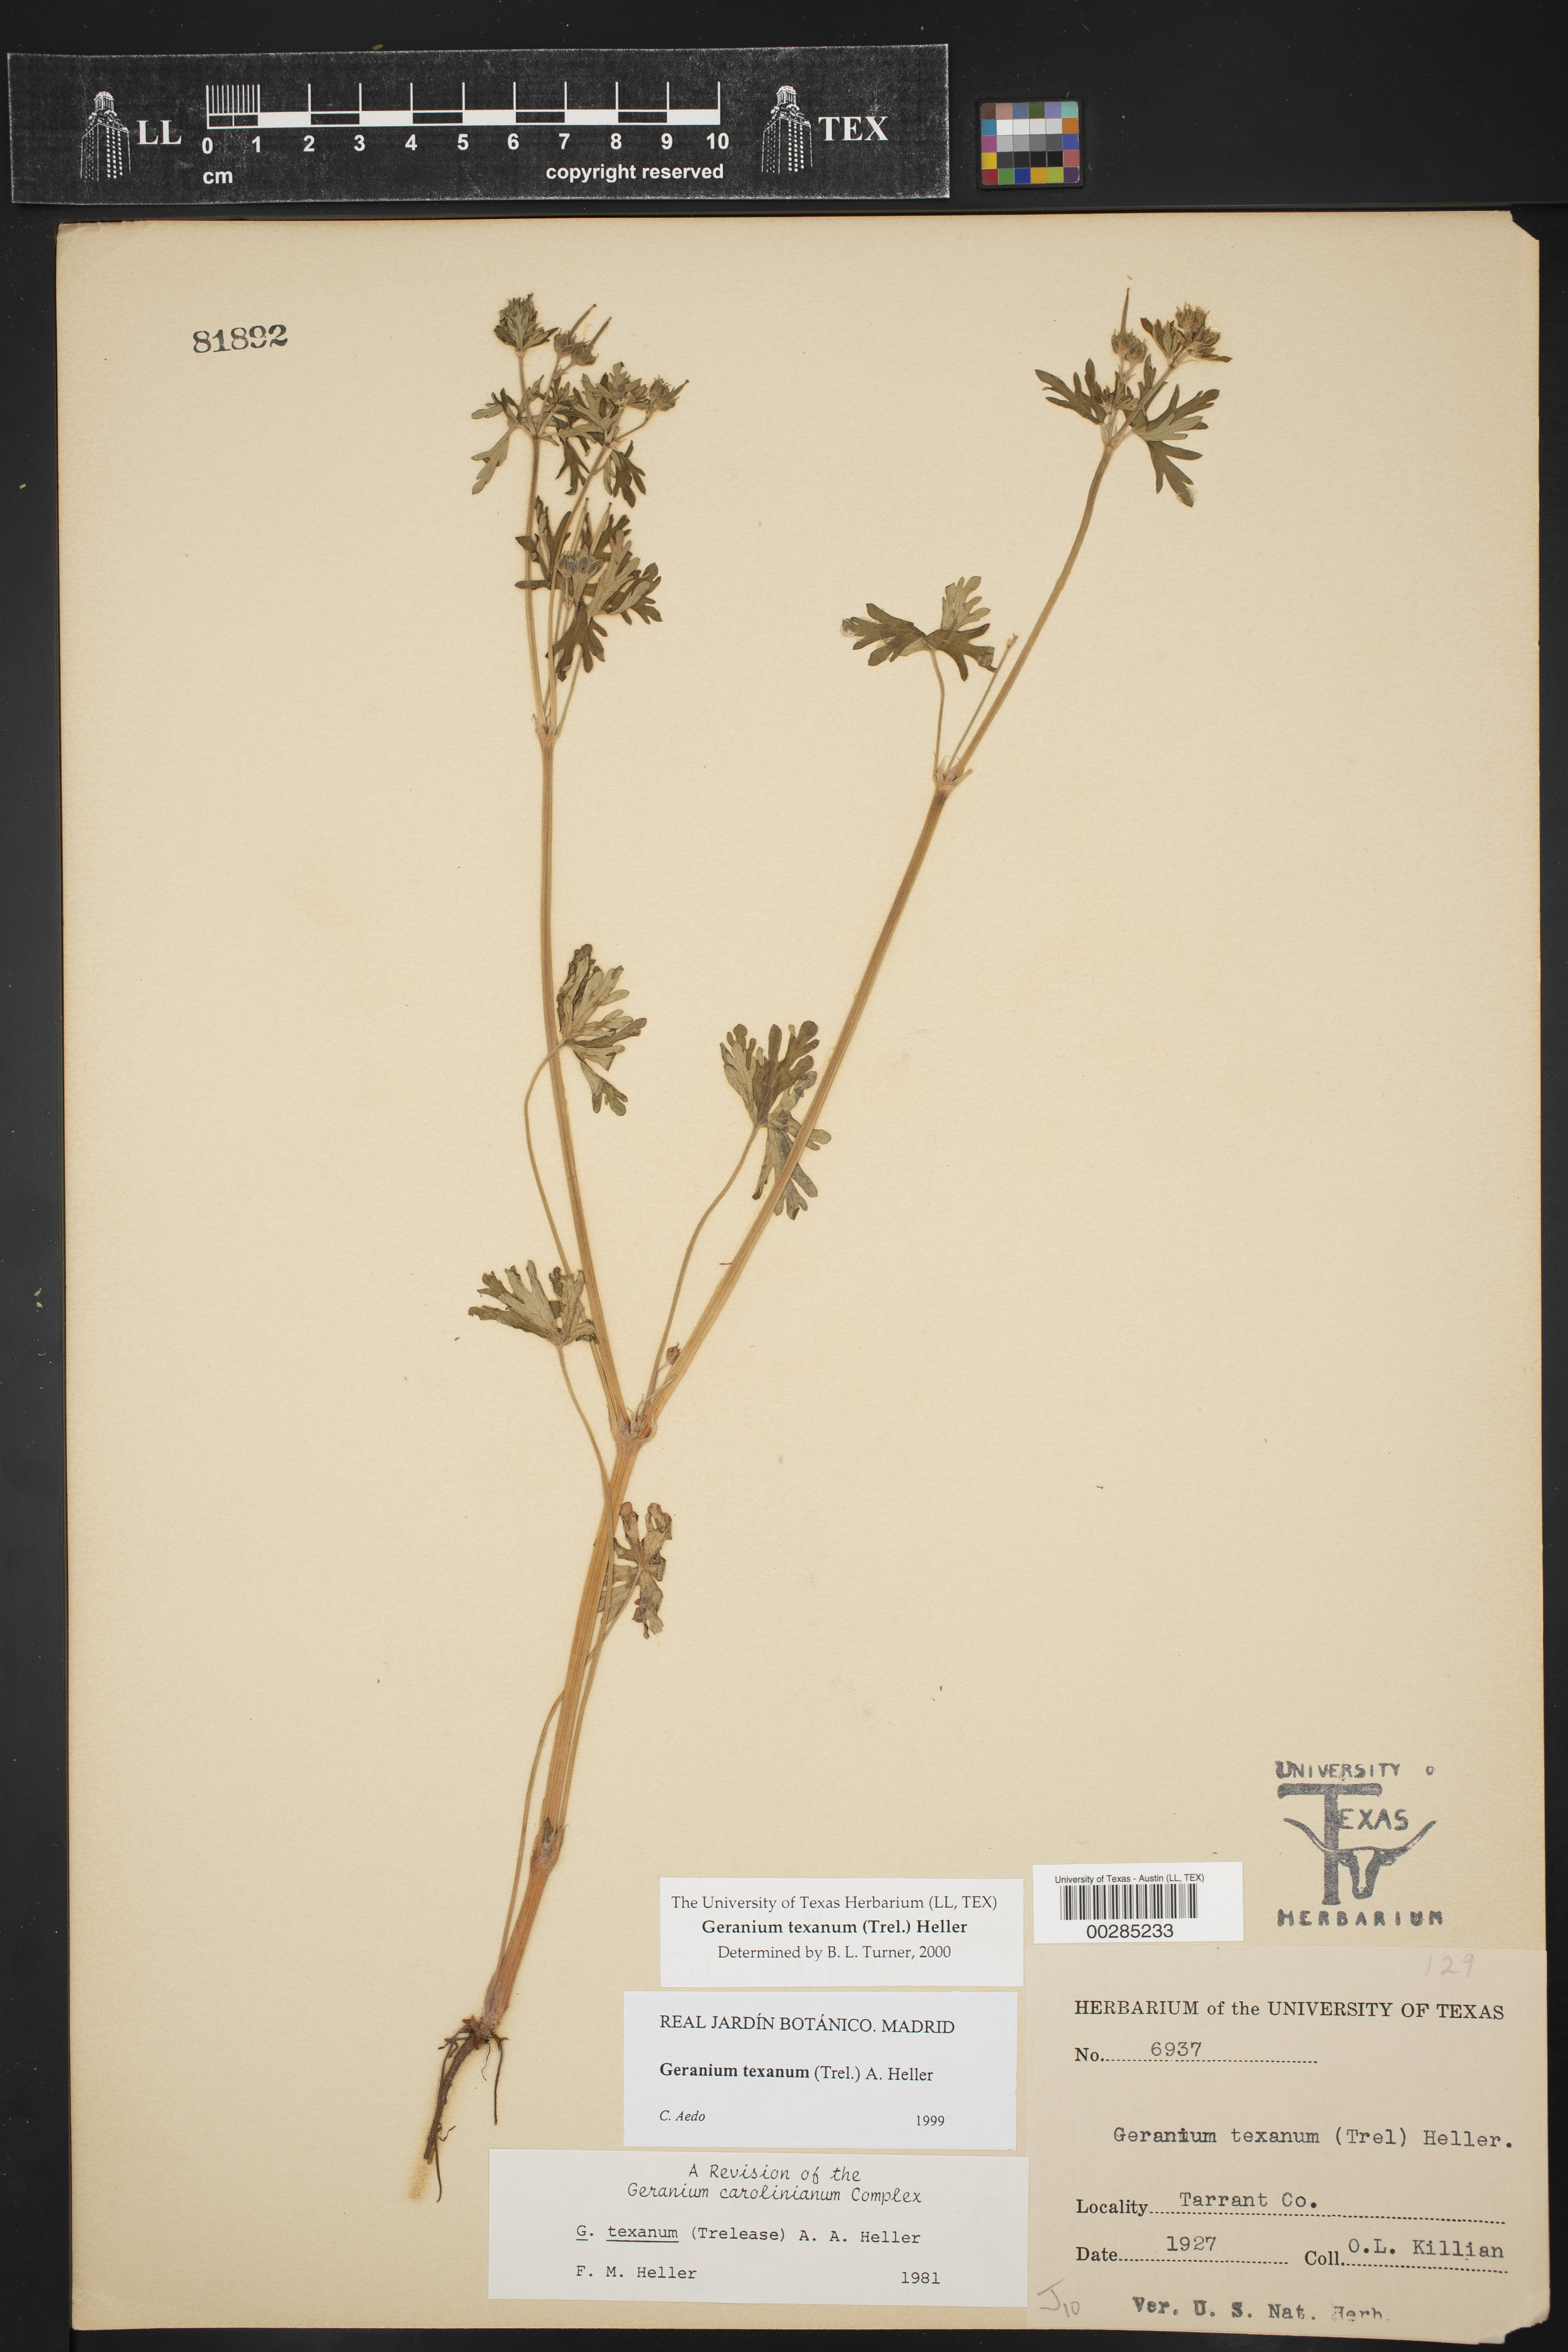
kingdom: Plantae
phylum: Tracheophyta
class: Magnoliopsida
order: Geraniales
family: Geraniaceae
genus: Geranium
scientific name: Geranium texanum
